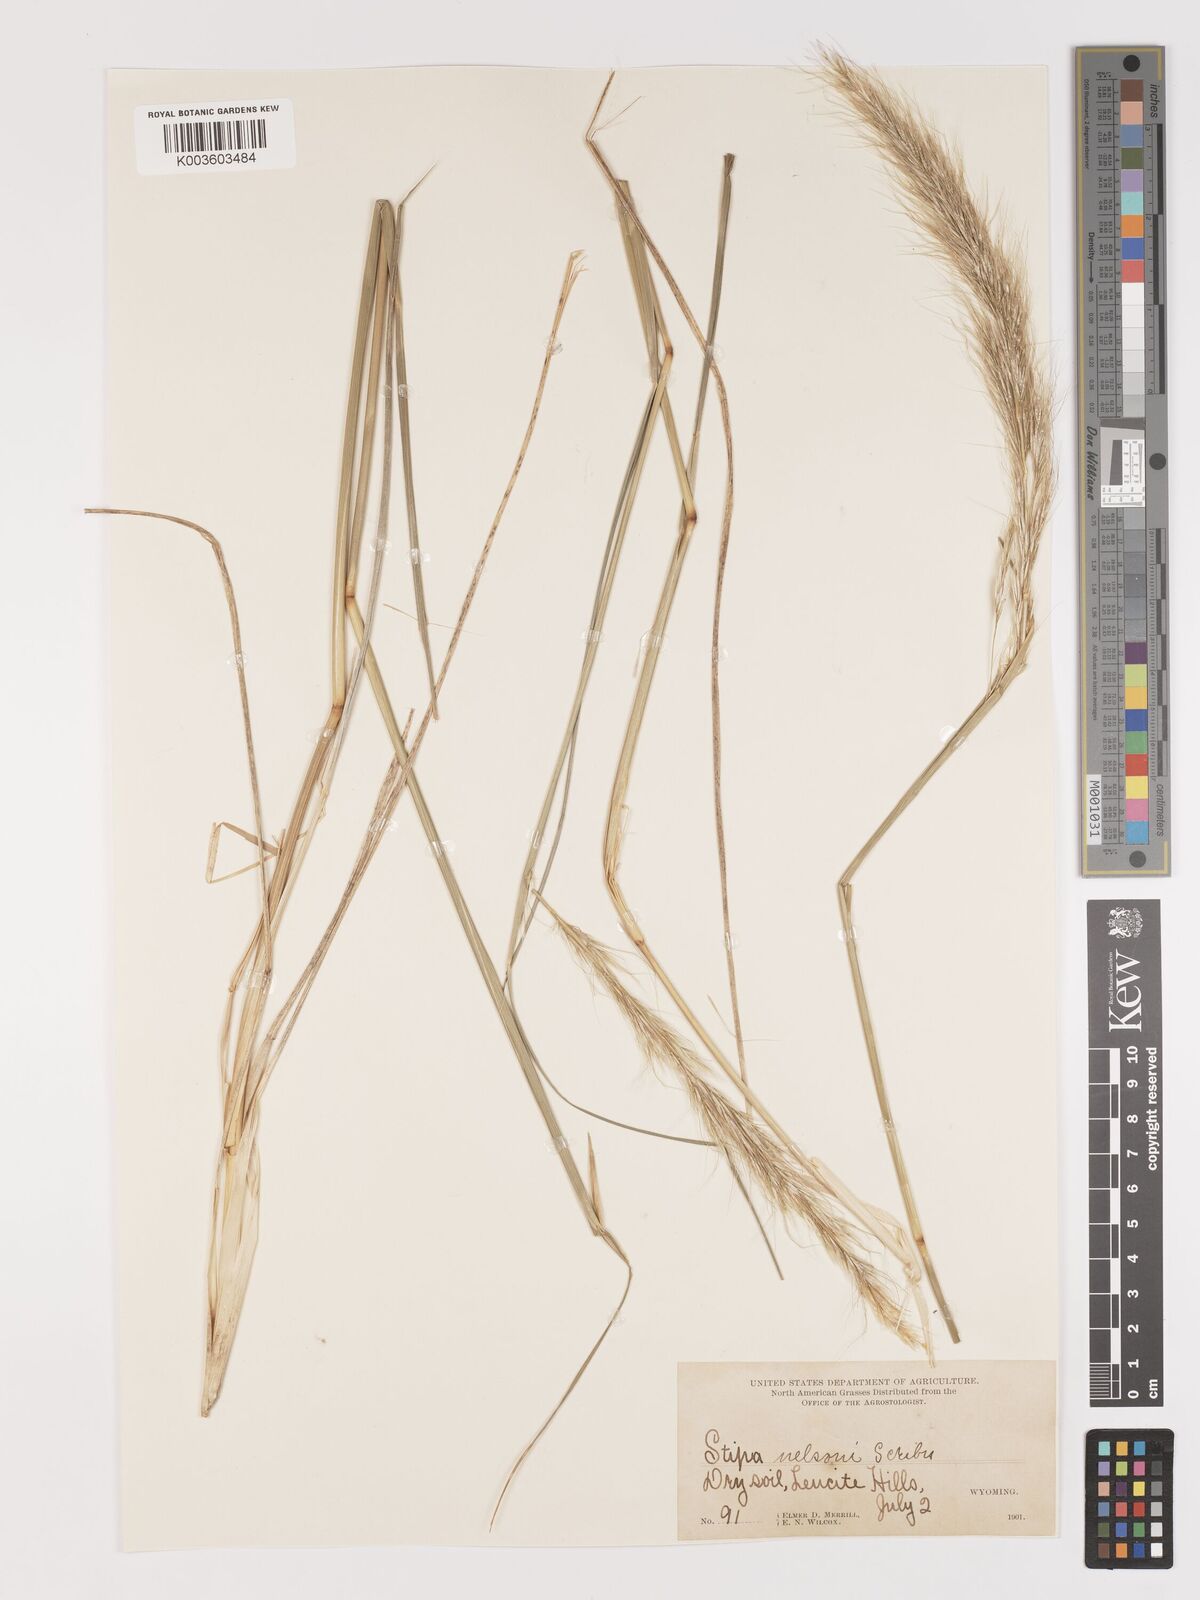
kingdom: Plantae
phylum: Tracheophyta
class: Liliopsida
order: Poales
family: Poaceae
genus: Eriocoma
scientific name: Eriocoma nelsonii
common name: Nelson's needlegrass
